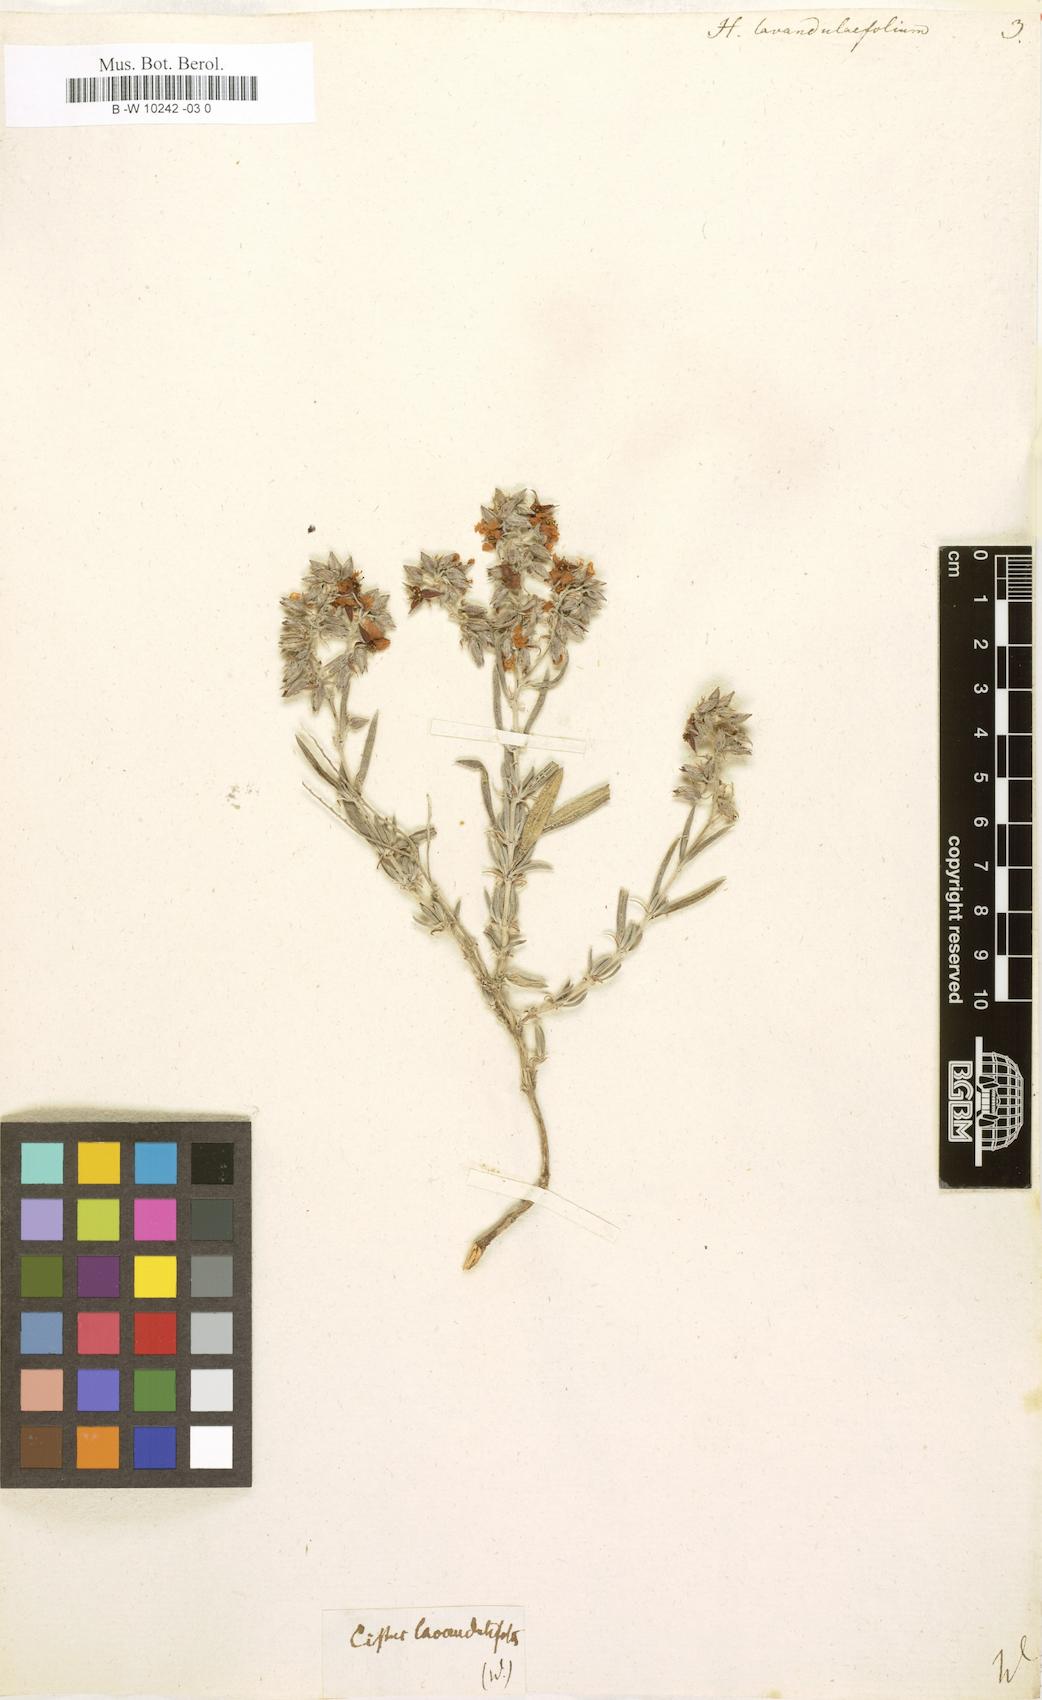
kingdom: Plantae
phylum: Tracheophyta
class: Magnoliopsida
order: Malvales
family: Cistaceae
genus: Helianthemum
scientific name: Helianthemum
